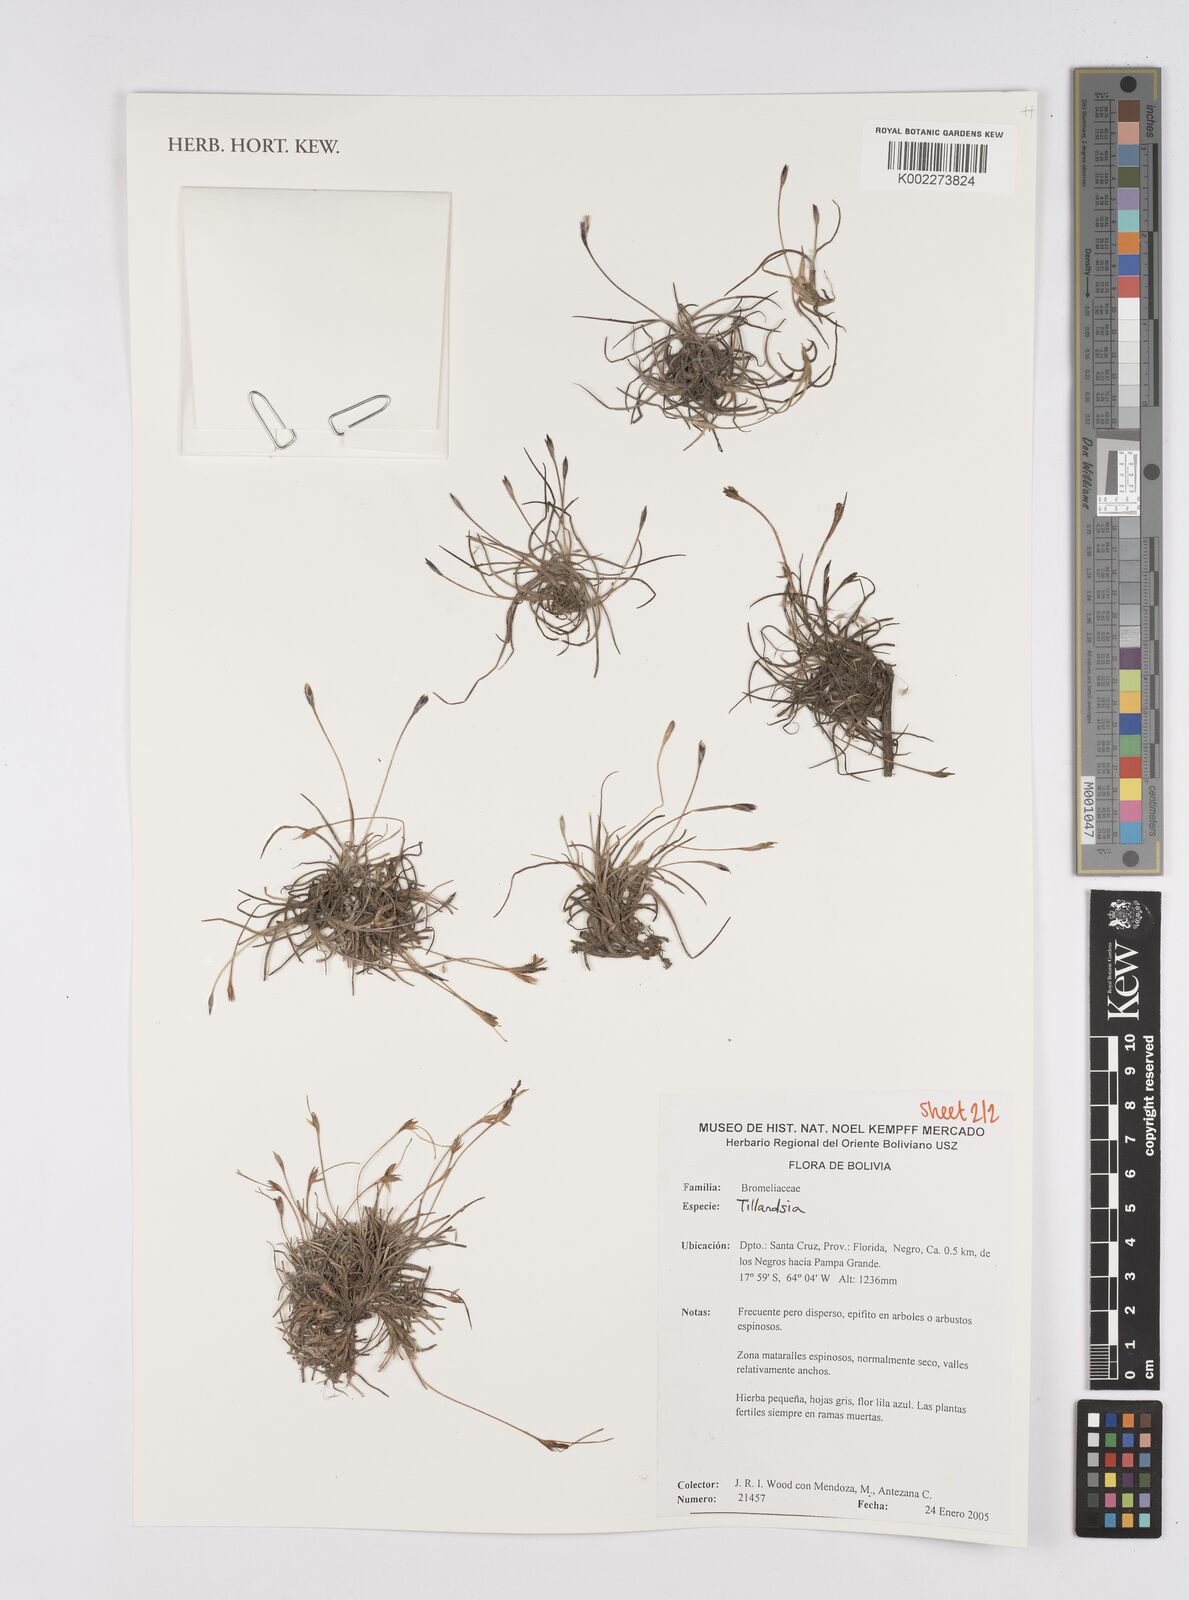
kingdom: Plantae
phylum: Tracheophyta
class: Liliopsida
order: Poales
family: Bromeliaceae
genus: Tillandsia
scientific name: Tillandsia
